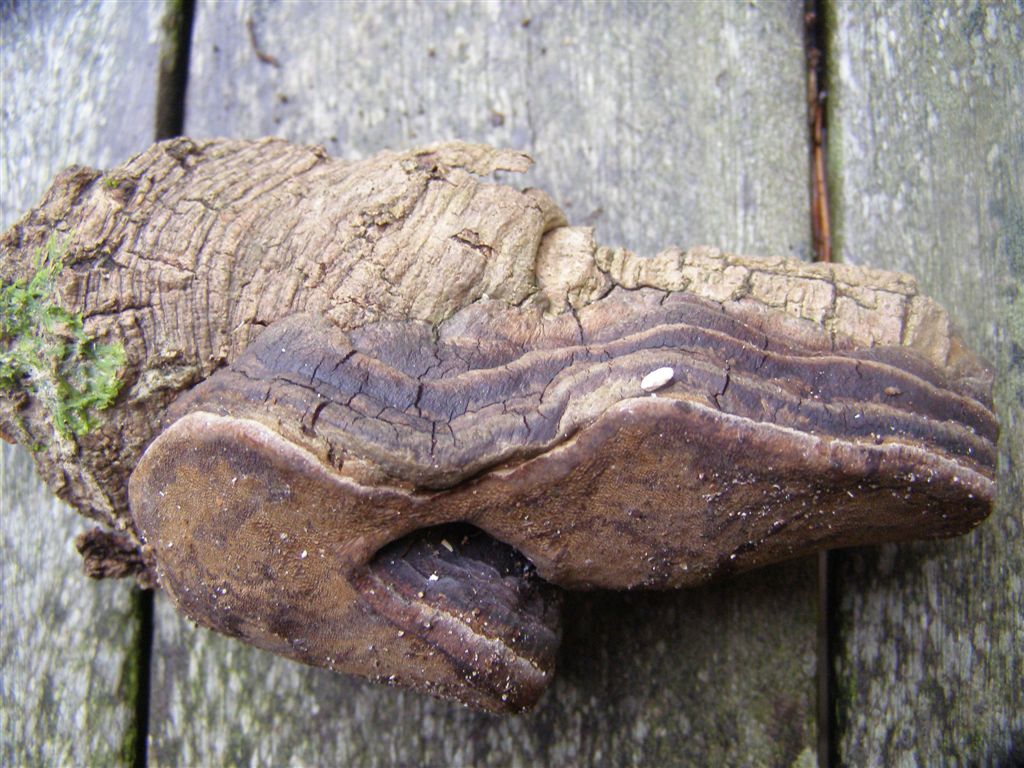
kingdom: Fungi
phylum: Basidiomycota
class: Agaricomycetes
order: Hymenochaetales
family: Hymenochaetaceae
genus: Phellinus
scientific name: Phellinus tremulae
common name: aspe-ildporesvamp
